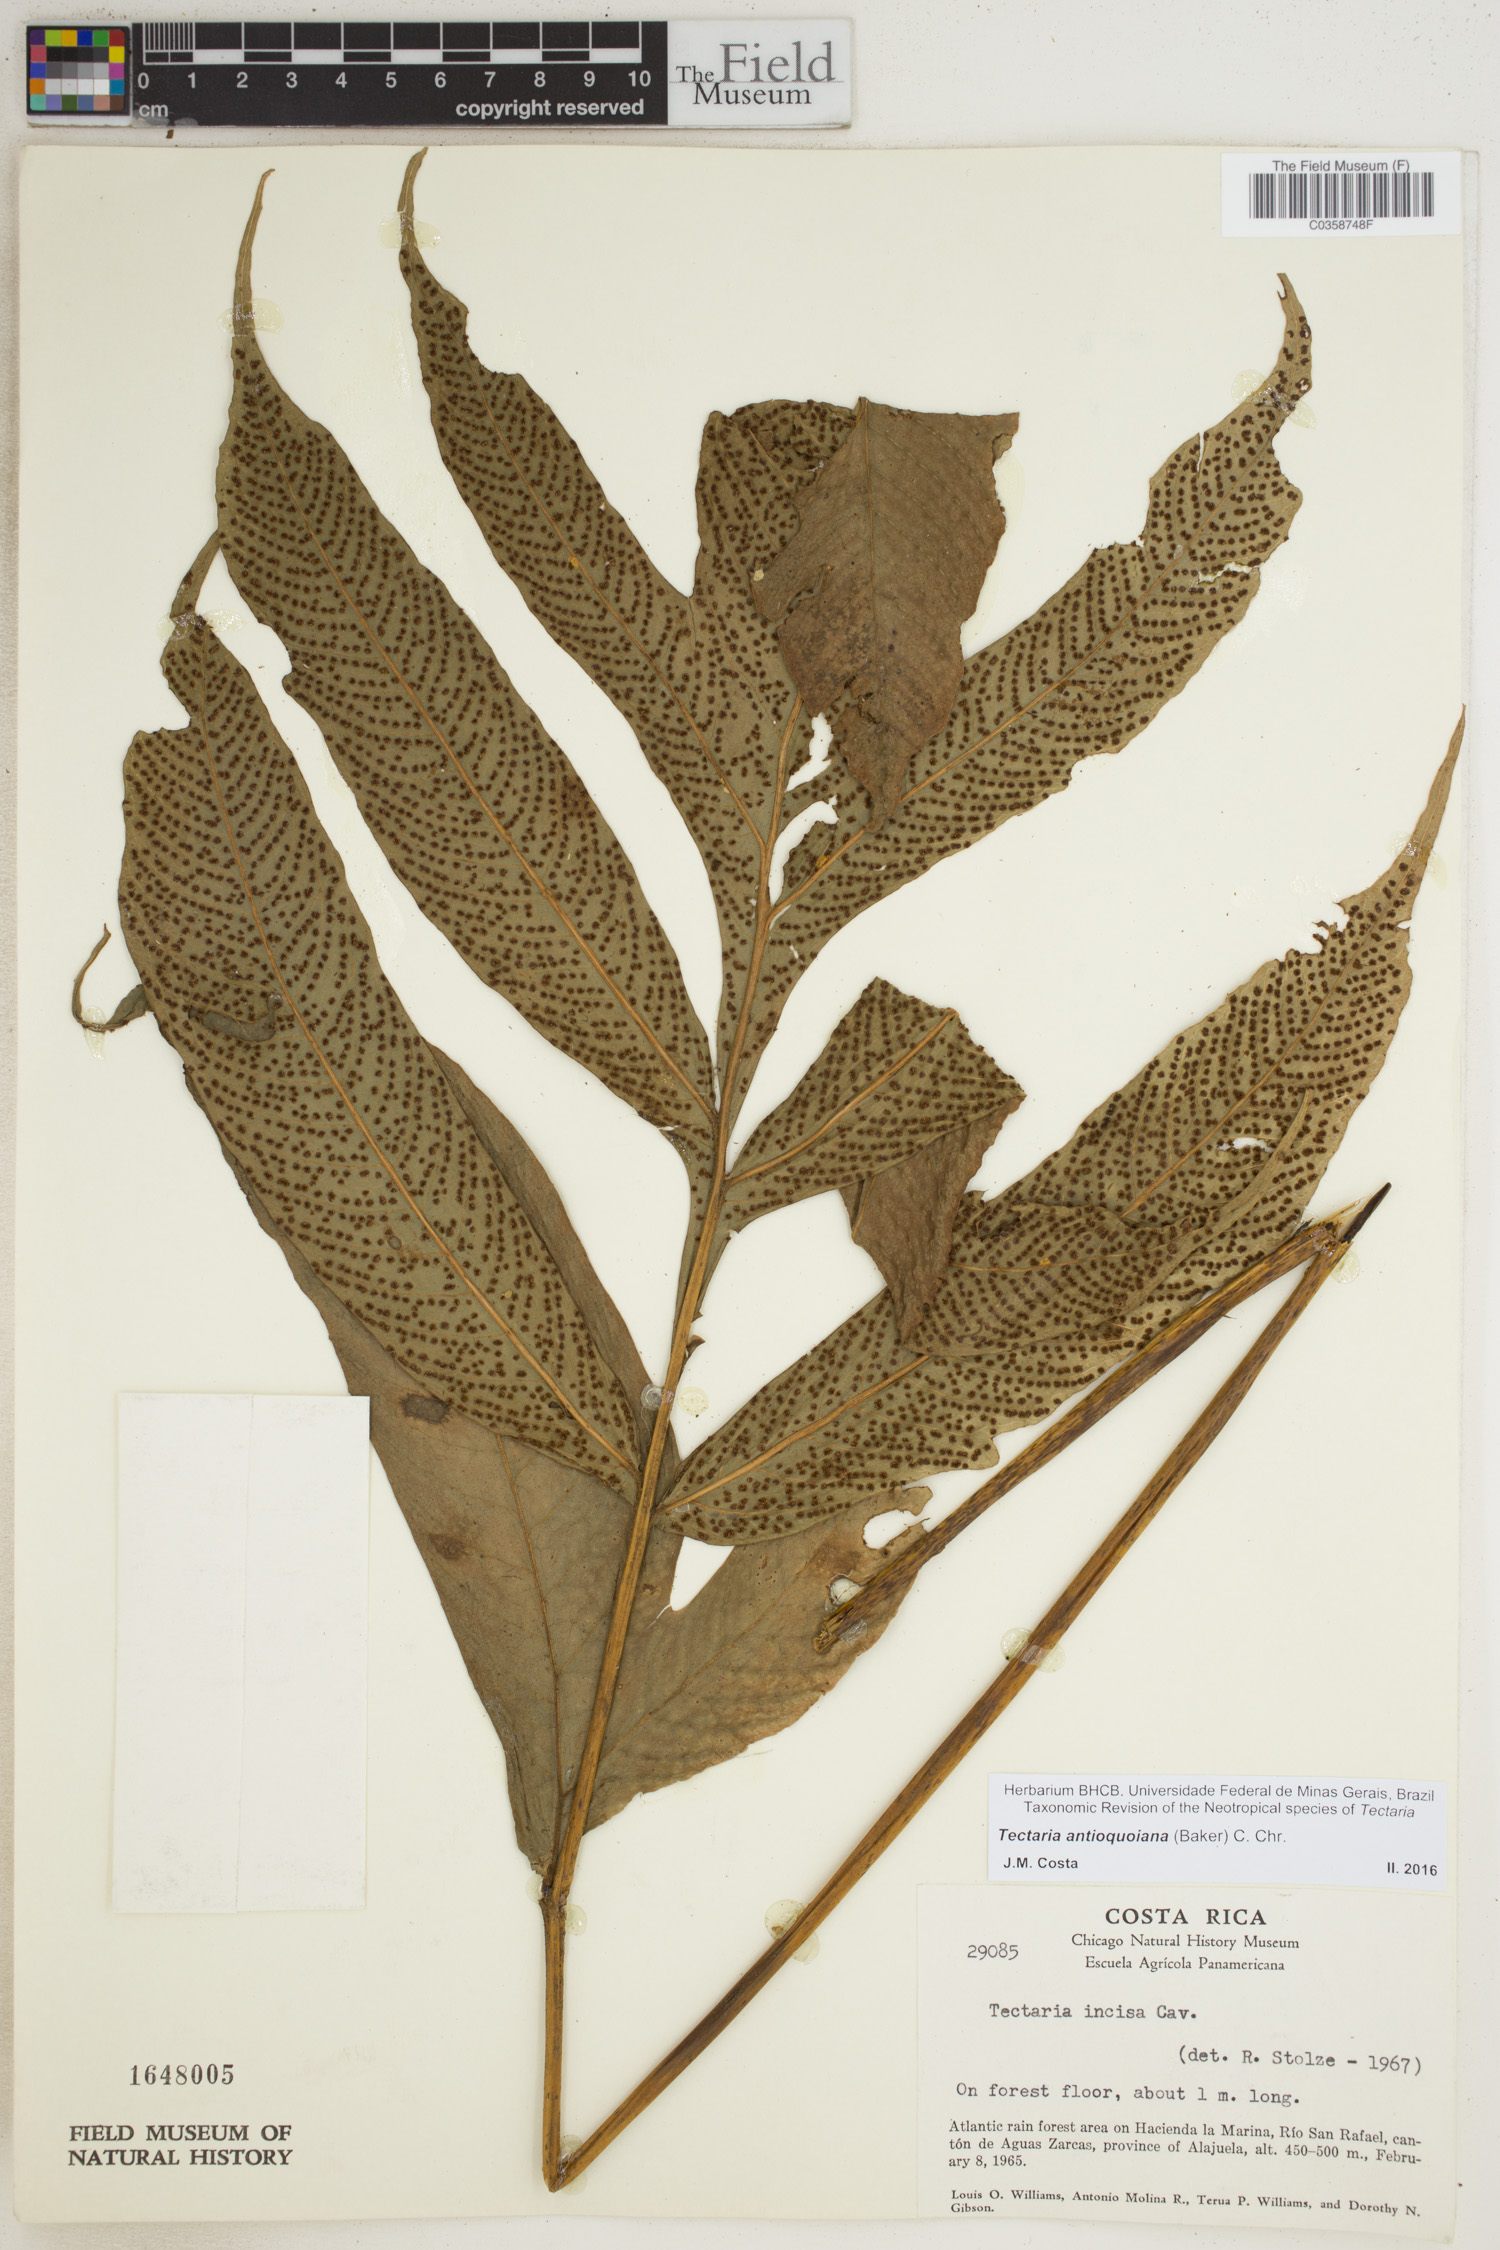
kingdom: Plantae
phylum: Tracheophyta
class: Polypodiopsida
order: Polypodiales
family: Tectariaceae
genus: Tectaria
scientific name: Tectaria acerifolia
